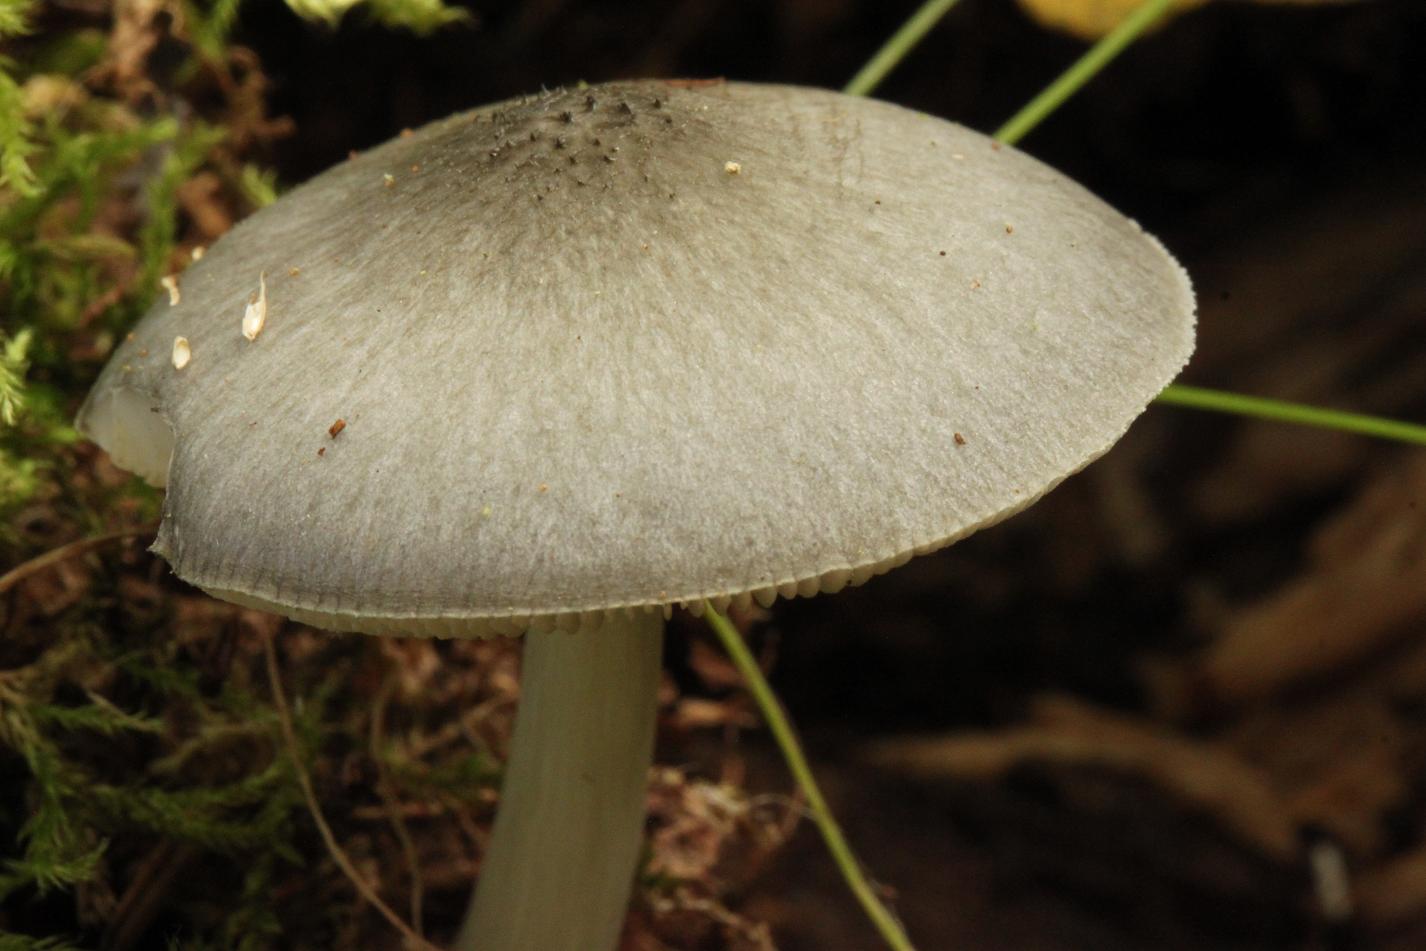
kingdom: Fungi
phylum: Basidiomycota
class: Agaricomycetes
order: Agaricales
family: Pluteaceae
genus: Pluteus
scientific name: Pluteus salicinus
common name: stiv skærmhat
